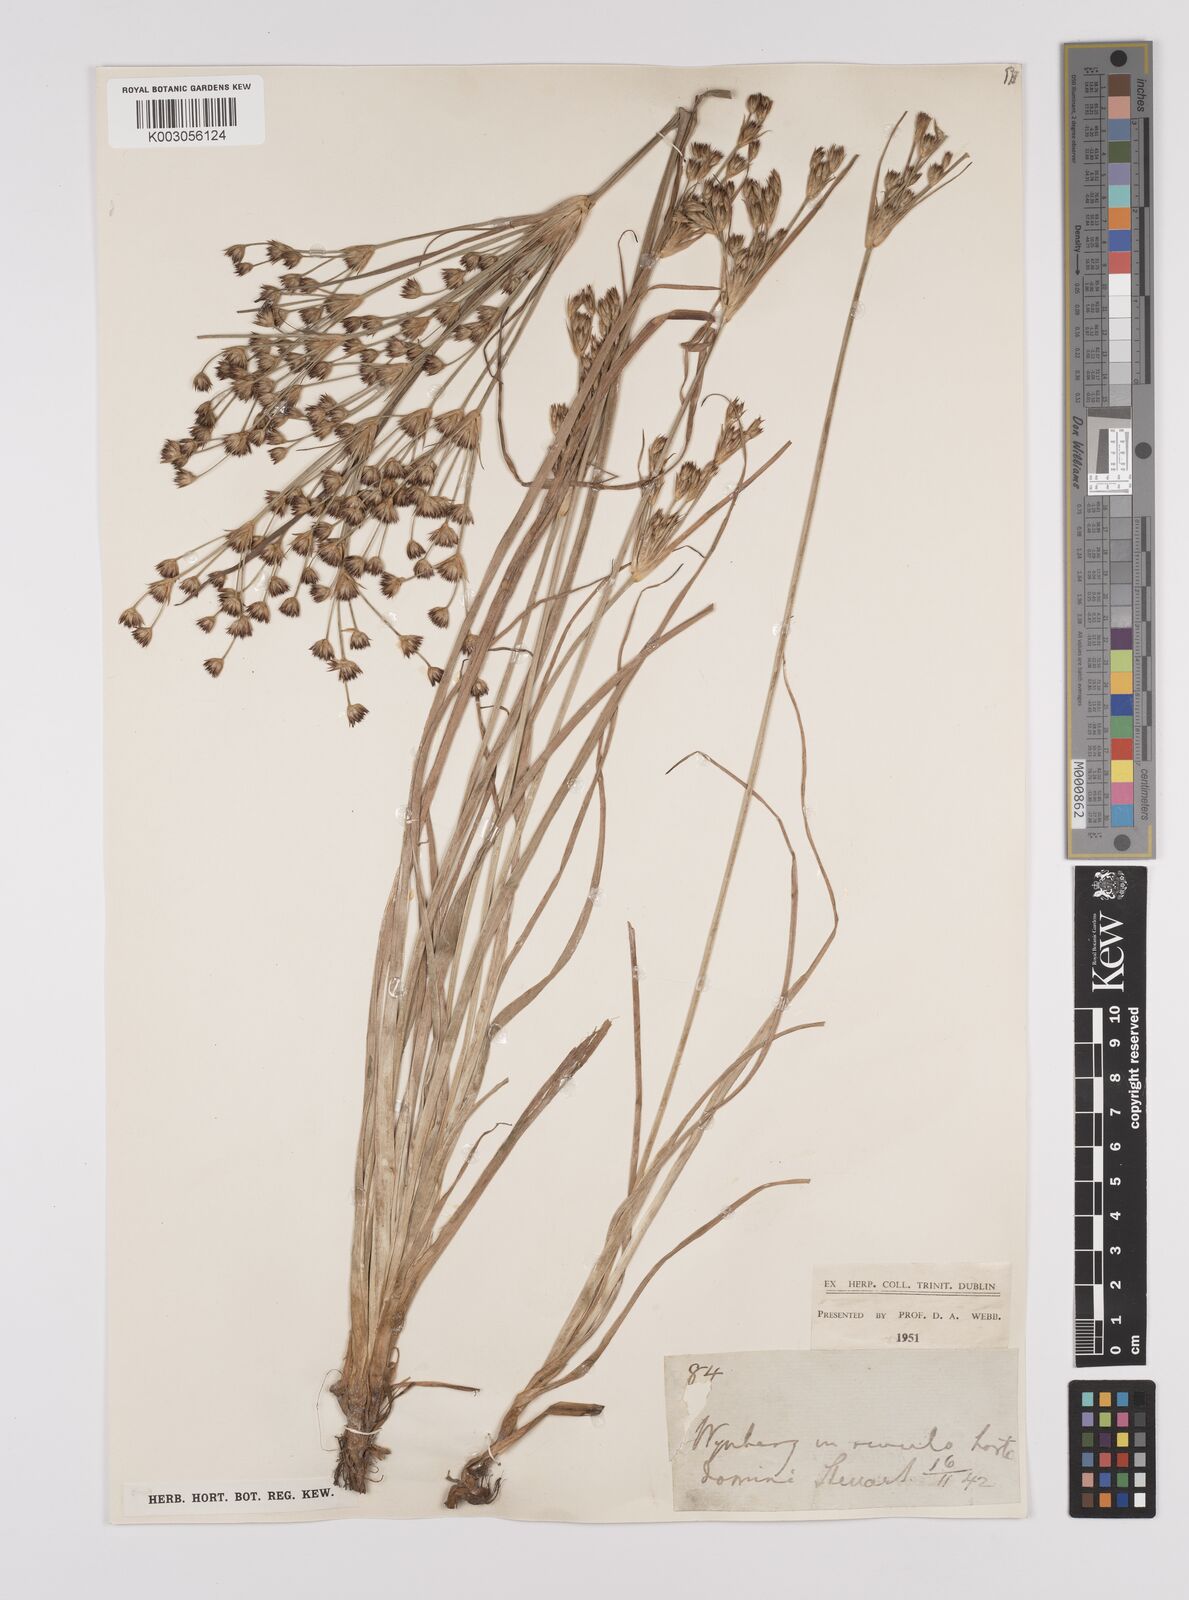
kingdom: Plantae
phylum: Tracheophyta
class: Liliopsida
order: Poales
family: Juncaceae
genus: Juncus
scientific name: Juncus
